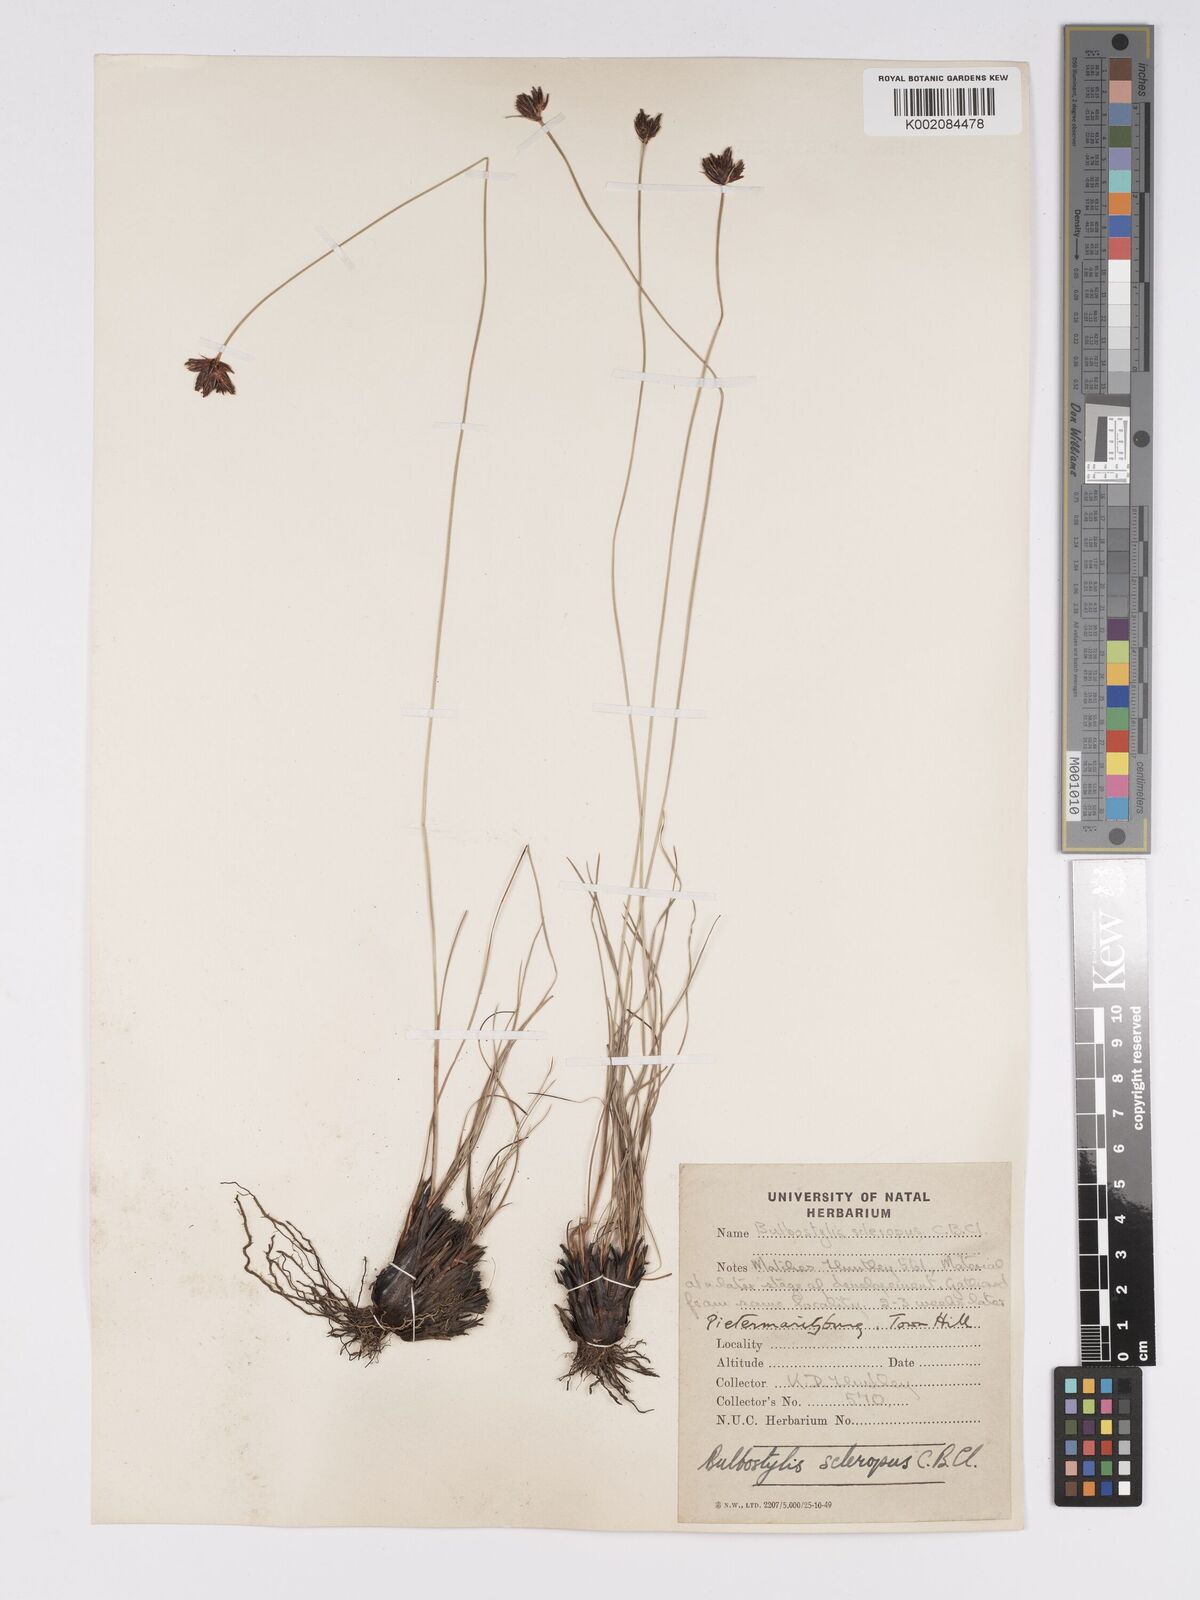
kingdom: Plantae
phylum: Tracheophyta
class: Liliopsida
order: Poales
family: Cyperaceae
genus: Bulbostylis
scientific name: Bulbostylis schoenoides
